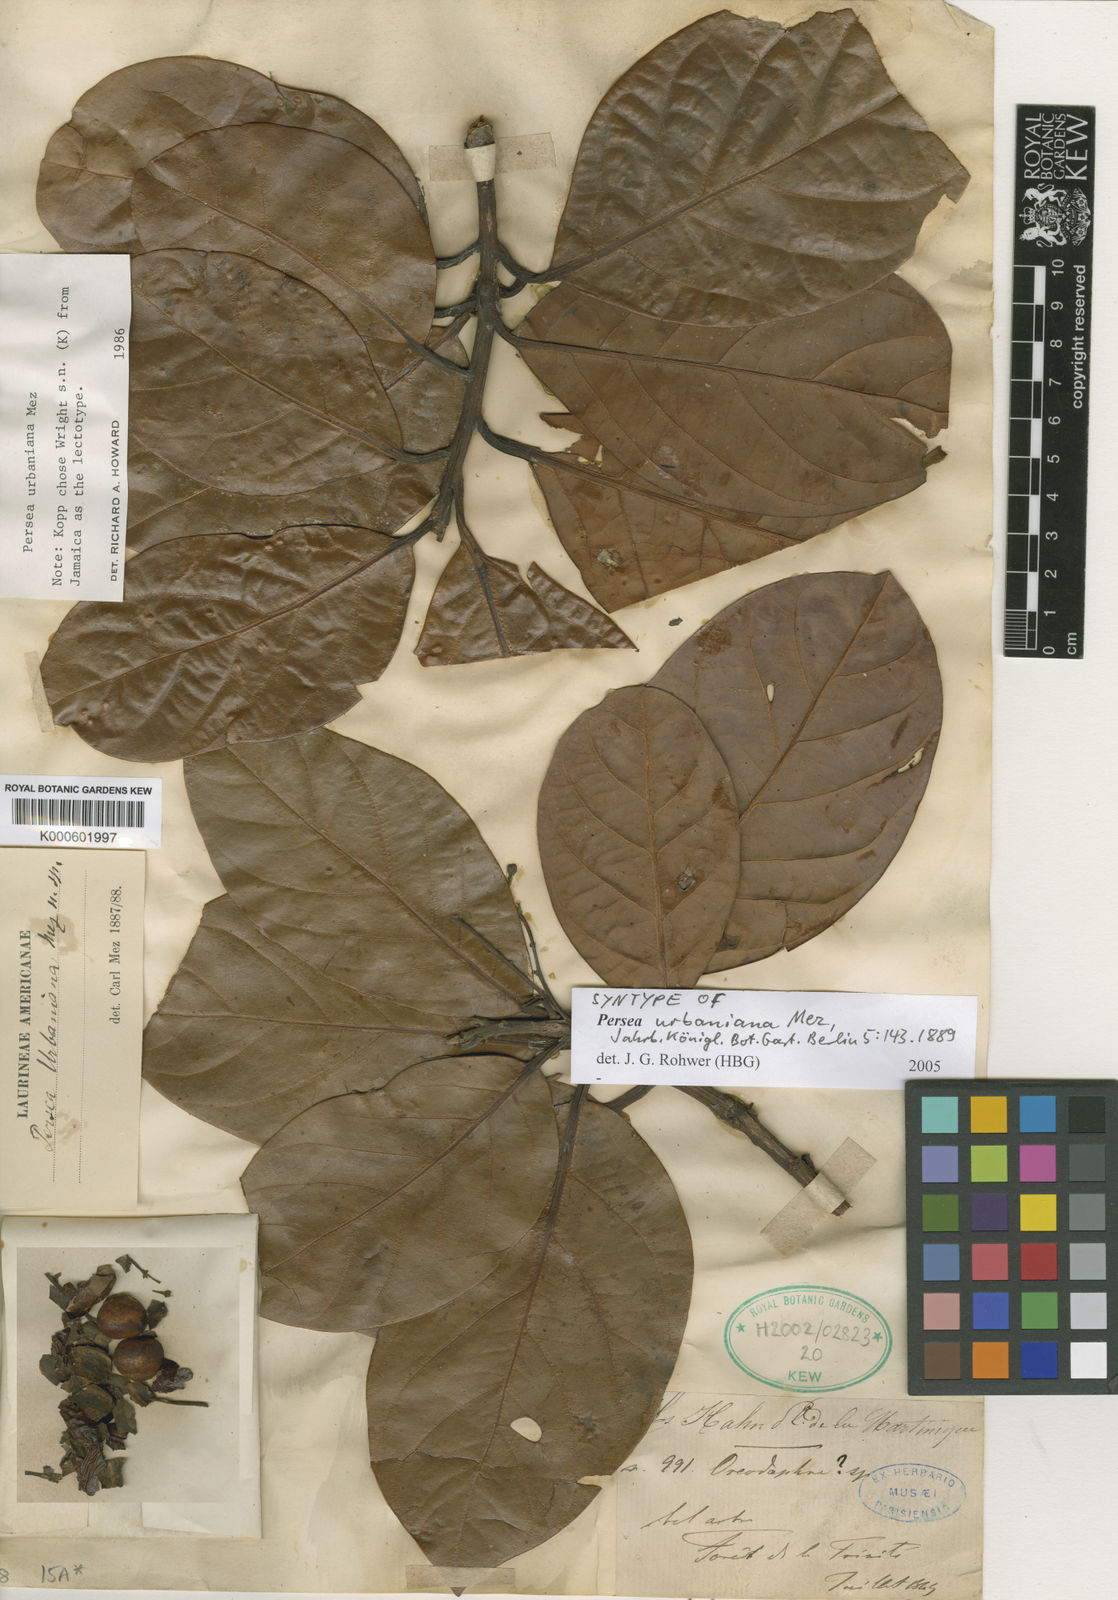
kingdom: Plantae
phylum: Tracheophyta
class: Magnoliopsida
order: Laurales
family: Lauraceae
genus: Persea
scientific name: Persea urbaniana
